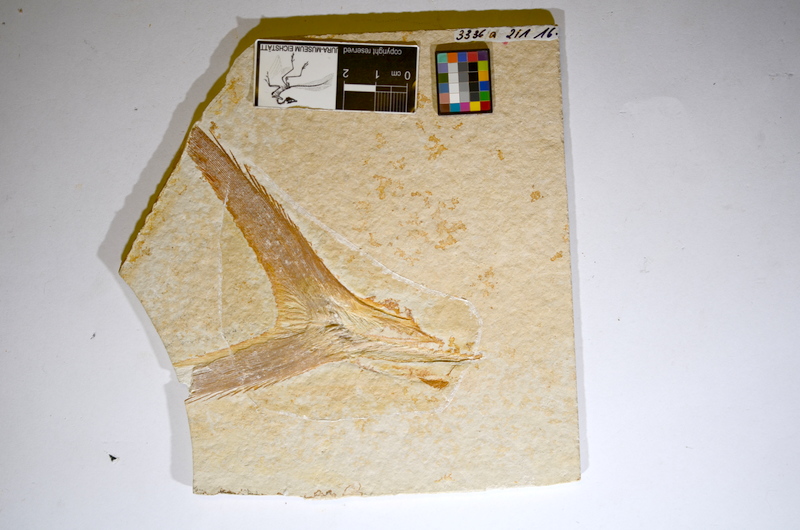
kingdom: Animalia
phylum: Chordata
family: Pachycormidae
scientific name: Pachycormidae
